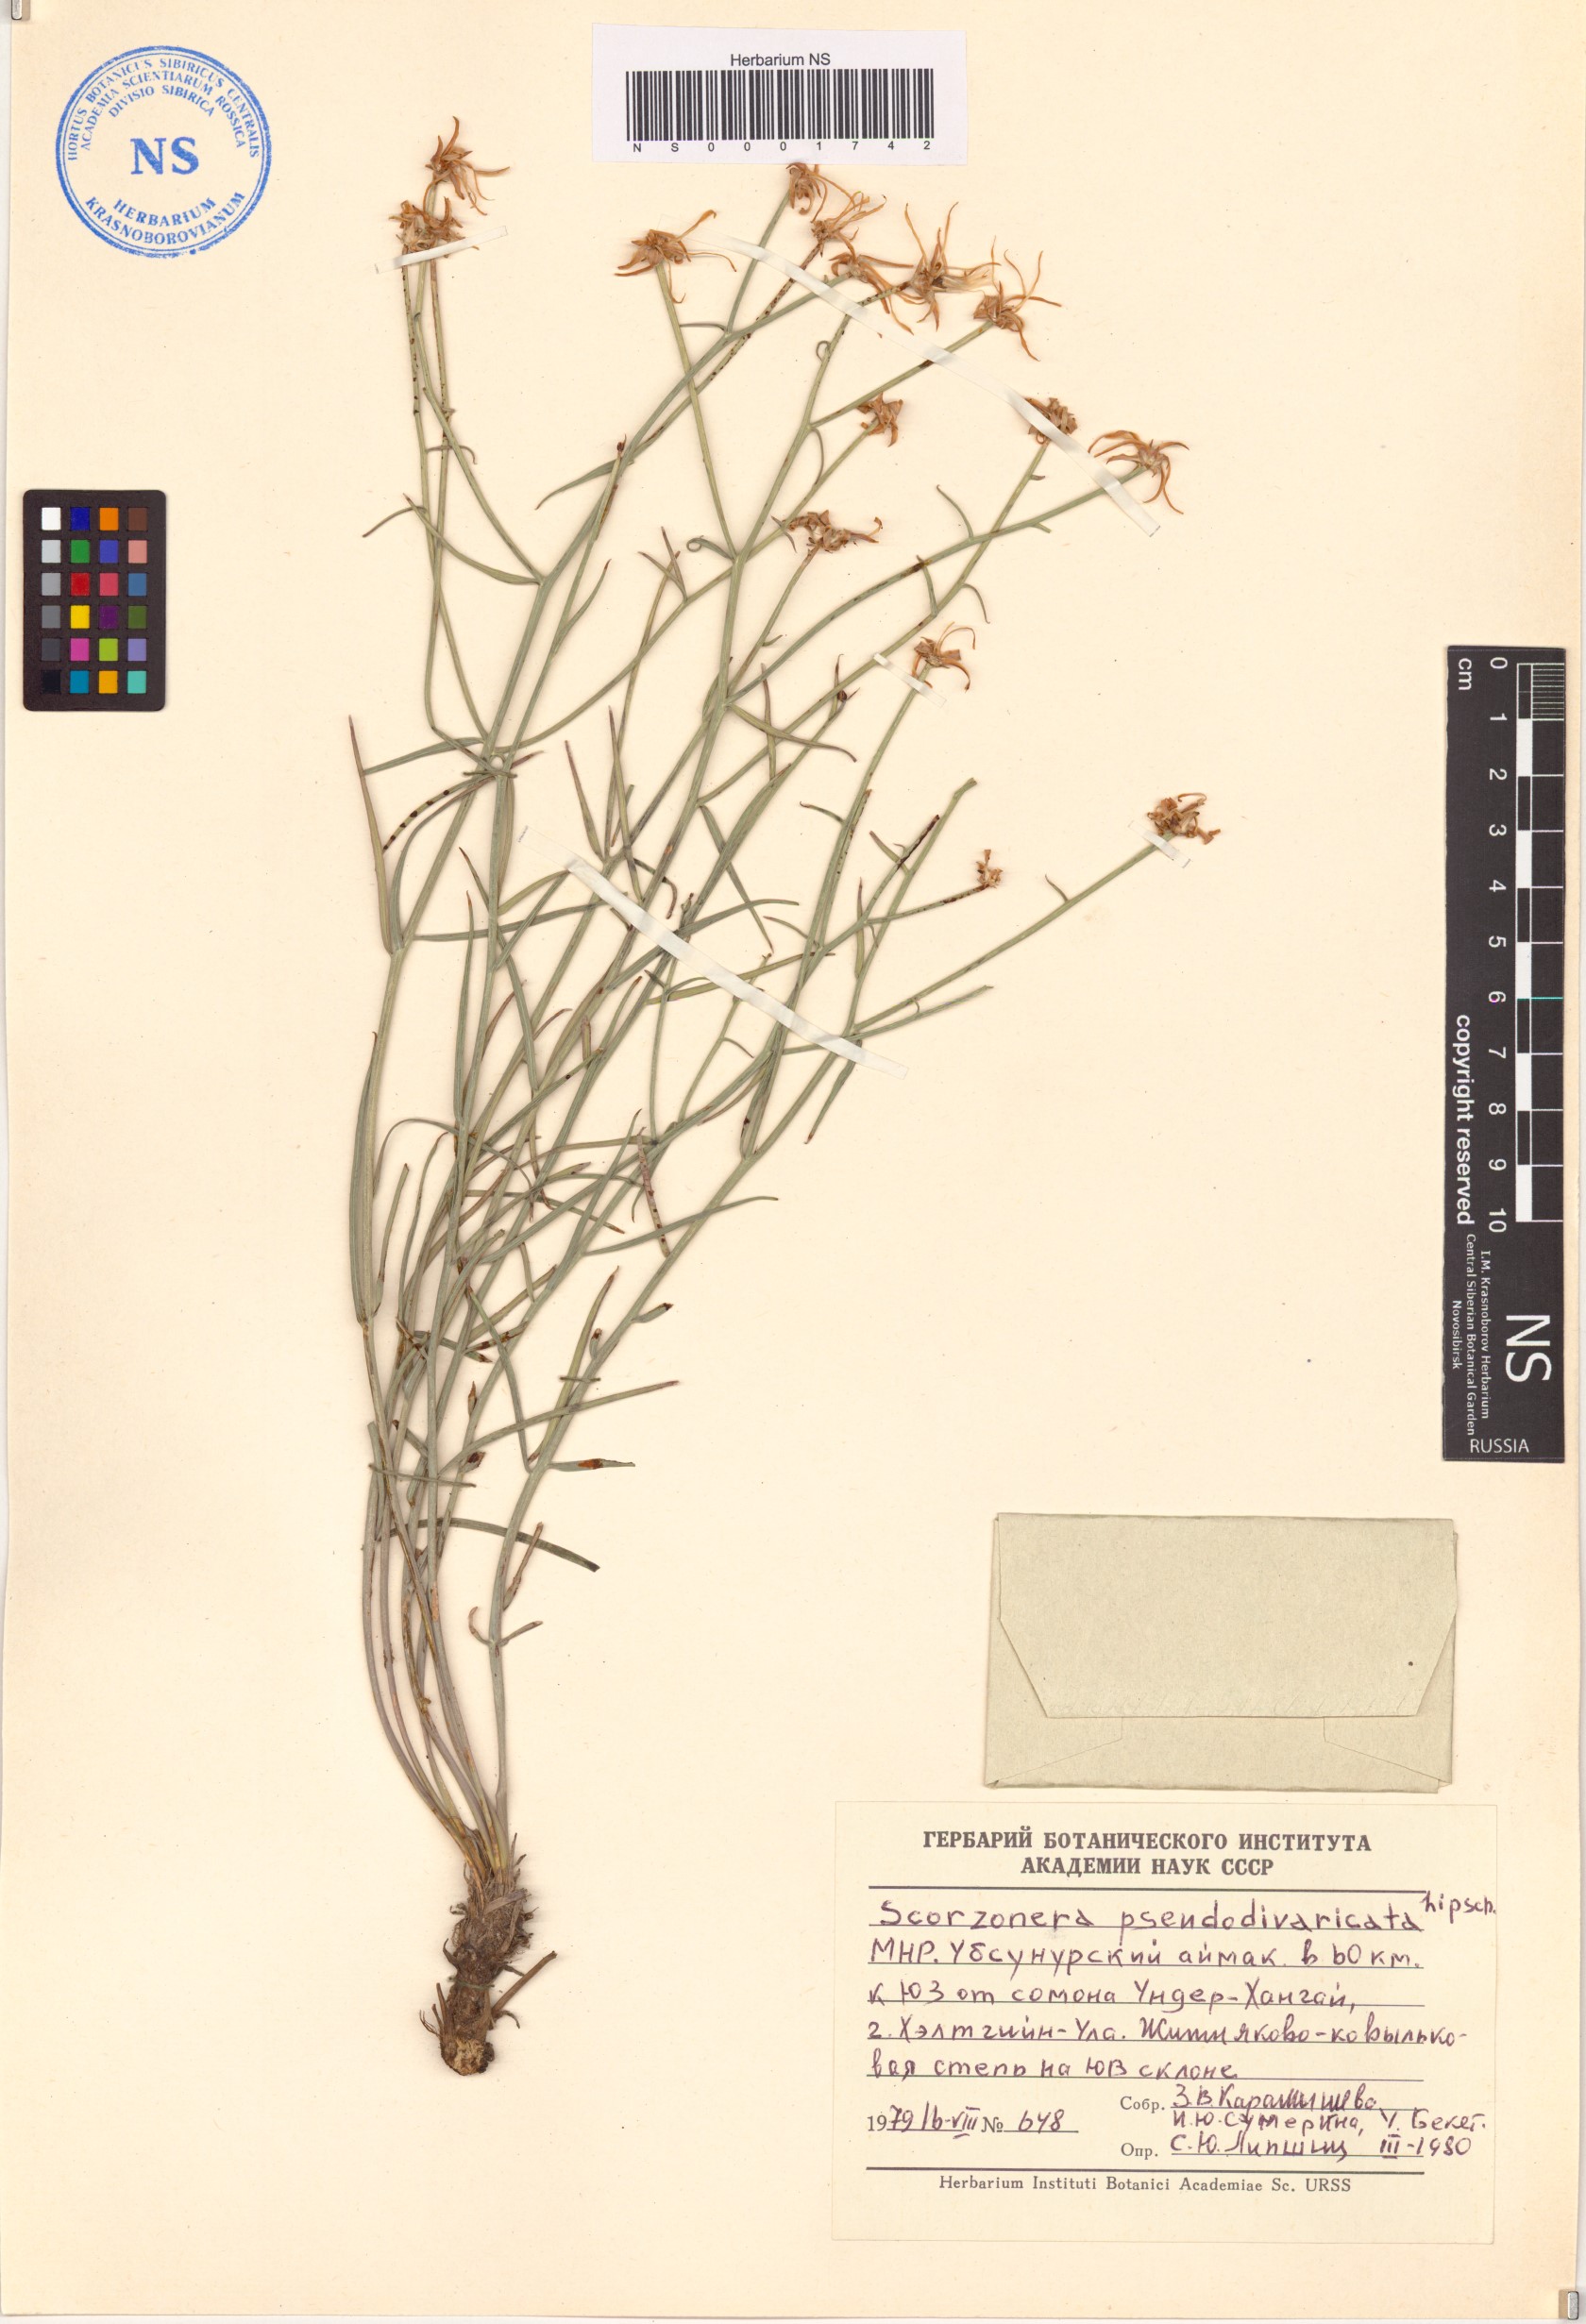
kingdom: Plantae
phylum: Tracheophyta
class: Magnoliopsida
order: Asterales
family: Asteraceae
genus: Takhtajaniantha
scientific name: Takhtajaniantha pseudodivaricata
